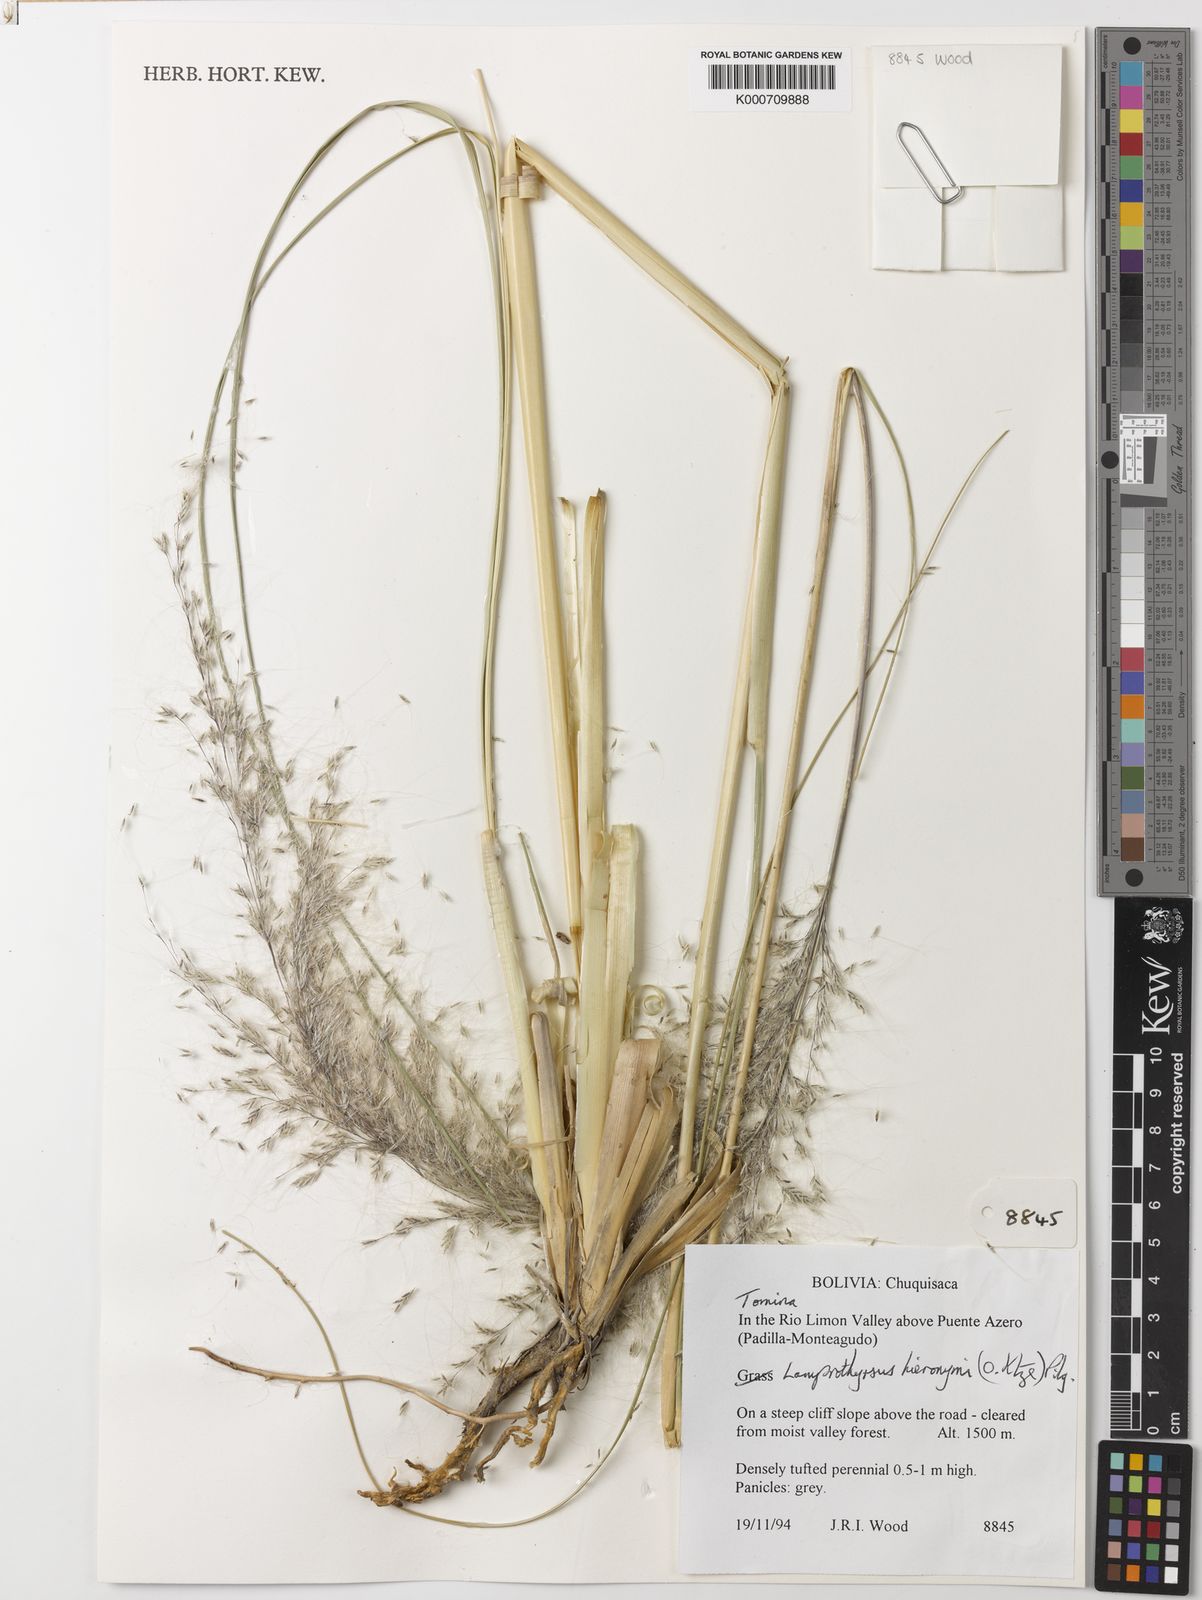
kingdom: Plantae
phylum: Tracheophyta
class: Liliopsida
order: Poales
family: Poaceae
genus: Cortaderia
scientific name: Cortaderia hieronymi
